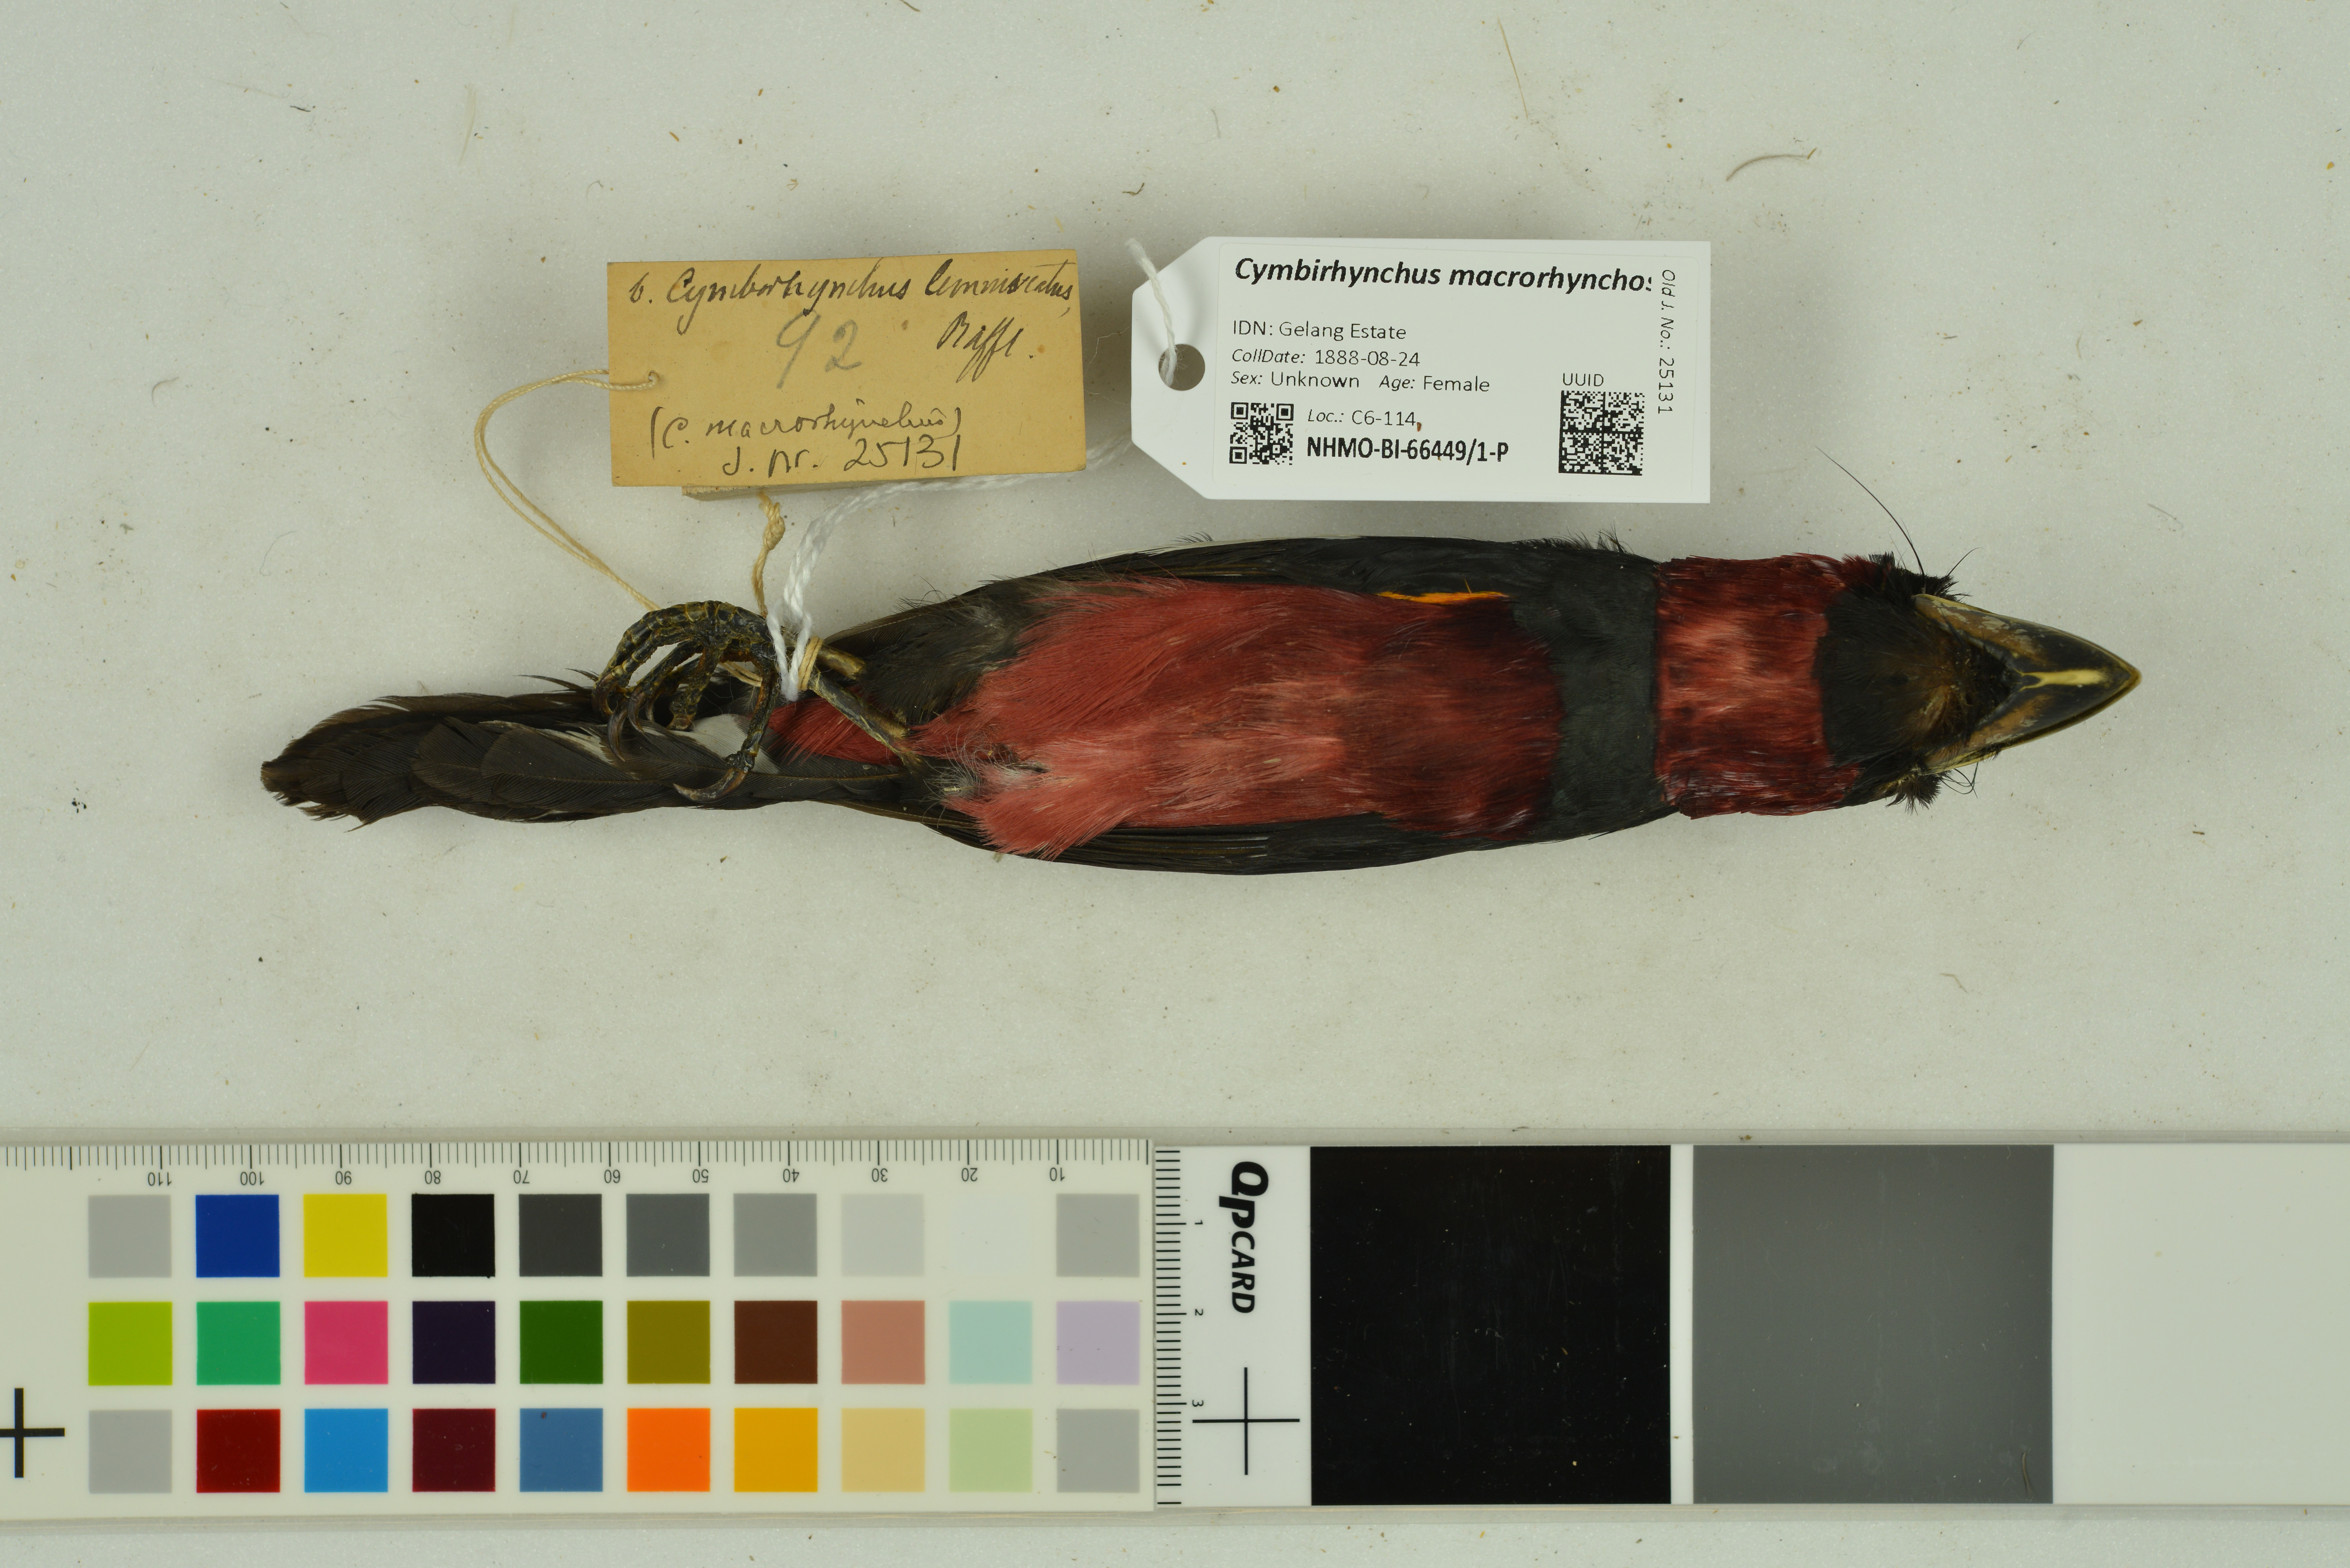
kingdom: Animalia
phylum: Chordata
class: Aves
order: Passeriformes
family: Eurylaimidae
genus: Cymbirhynchus
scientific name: Cymbirhynchus macrorhynchos
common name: Black-and-red broadbill
